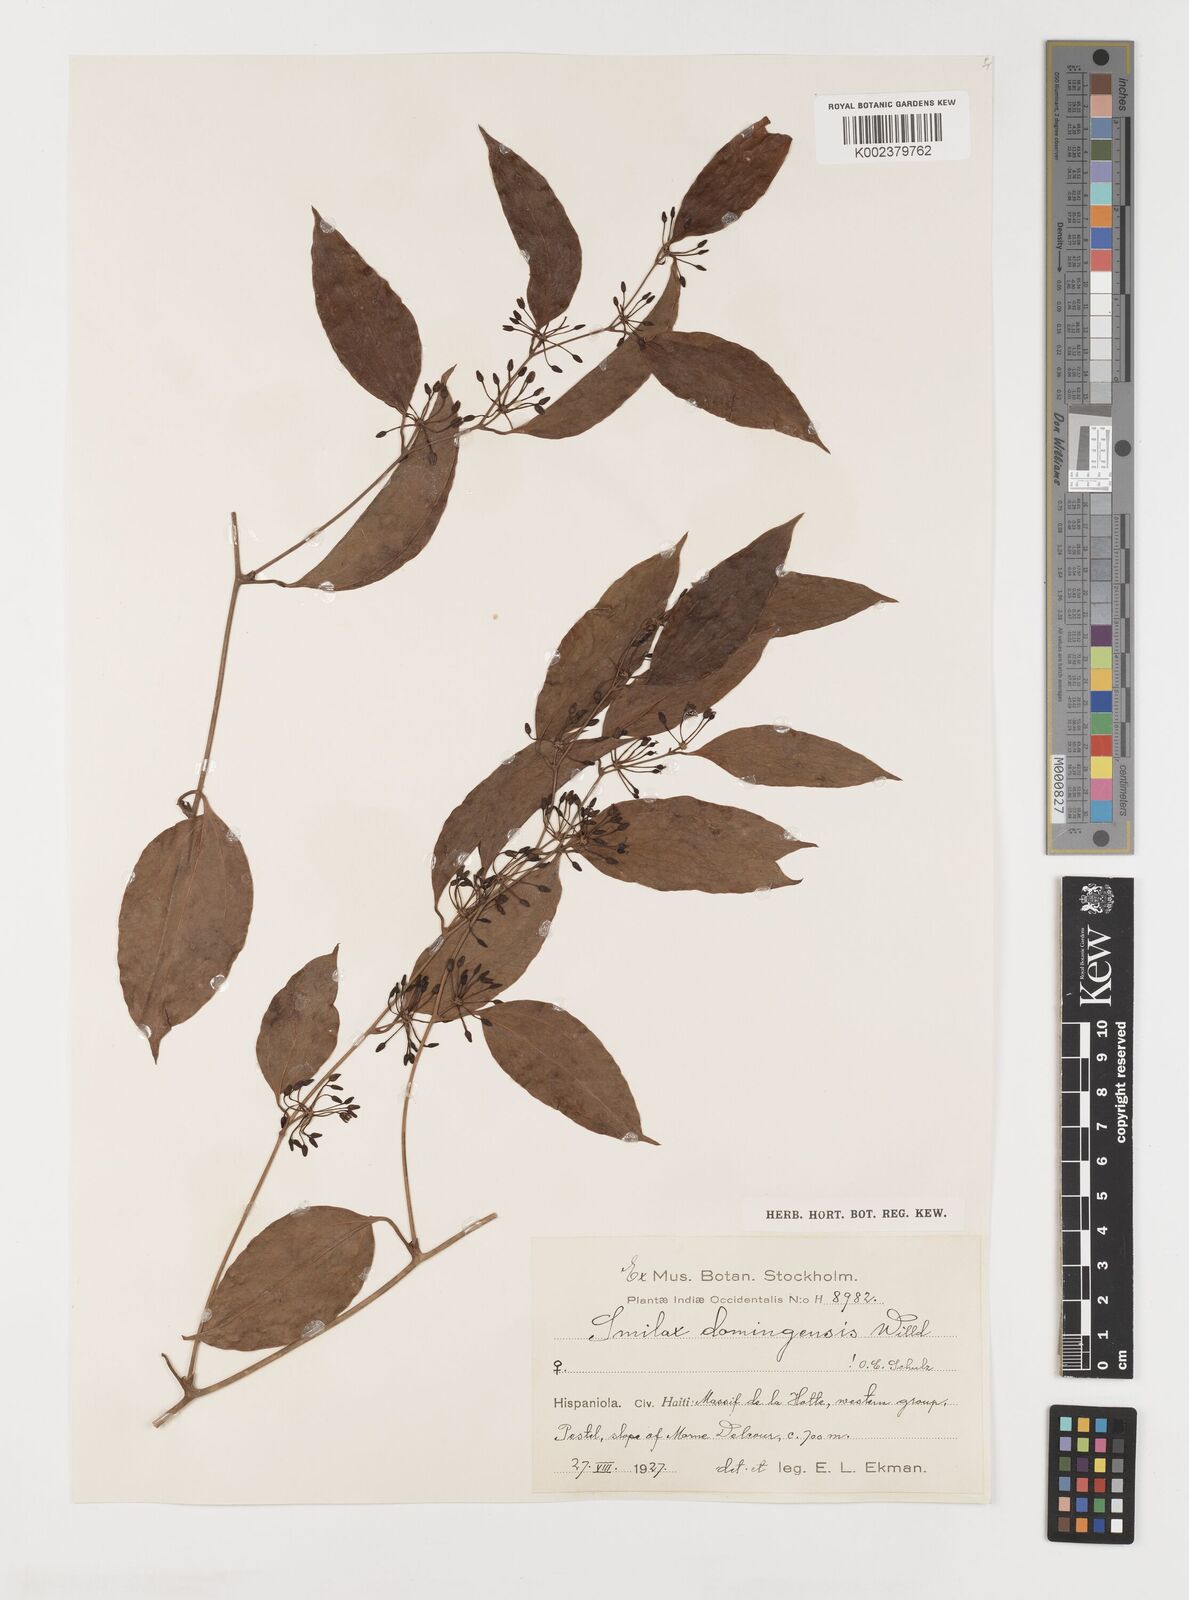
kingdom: Plantae
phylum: Tracheophyta
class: Liliopsida
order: Liliales
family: Smilacaceae
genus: Smilax
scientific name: Smilax domingensis
